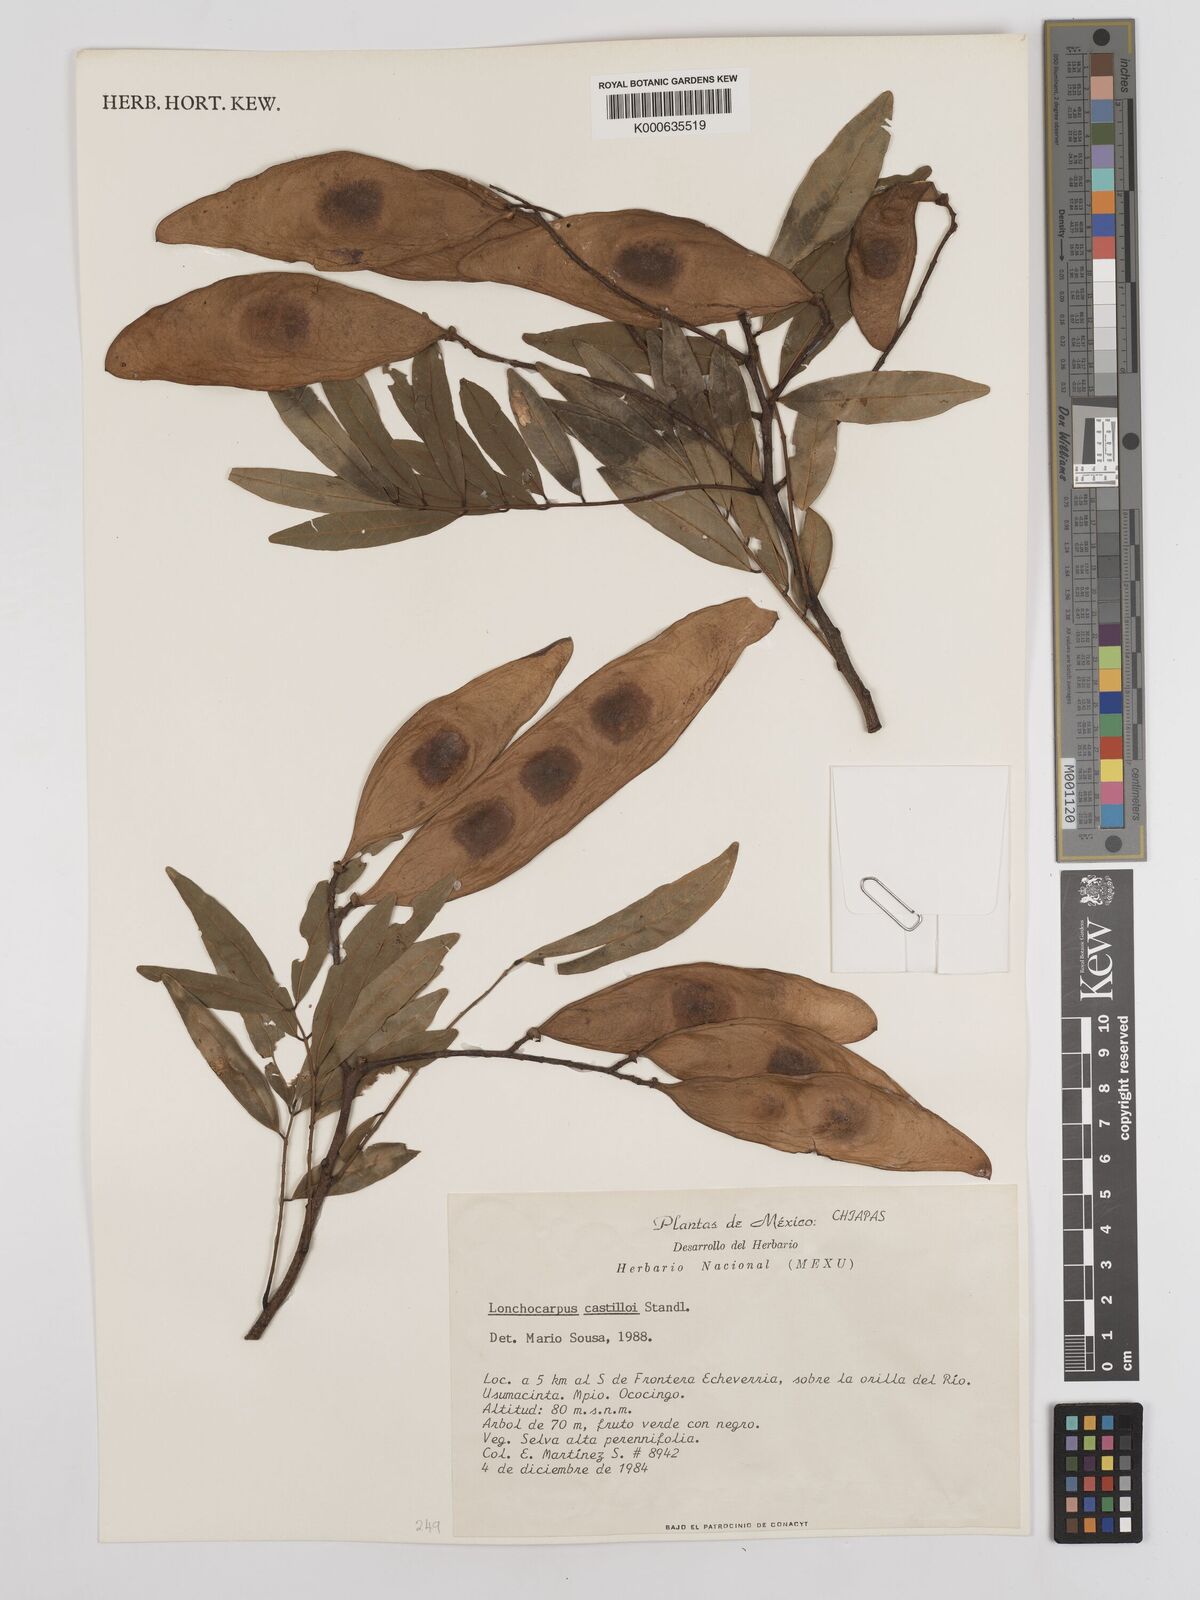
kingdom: Plantae
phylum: Tracheophyta
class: Magnoliopsida
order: Fabales
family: Fabaceae
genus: Lonchocarpus
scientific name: Lonchocarpus castilloi
